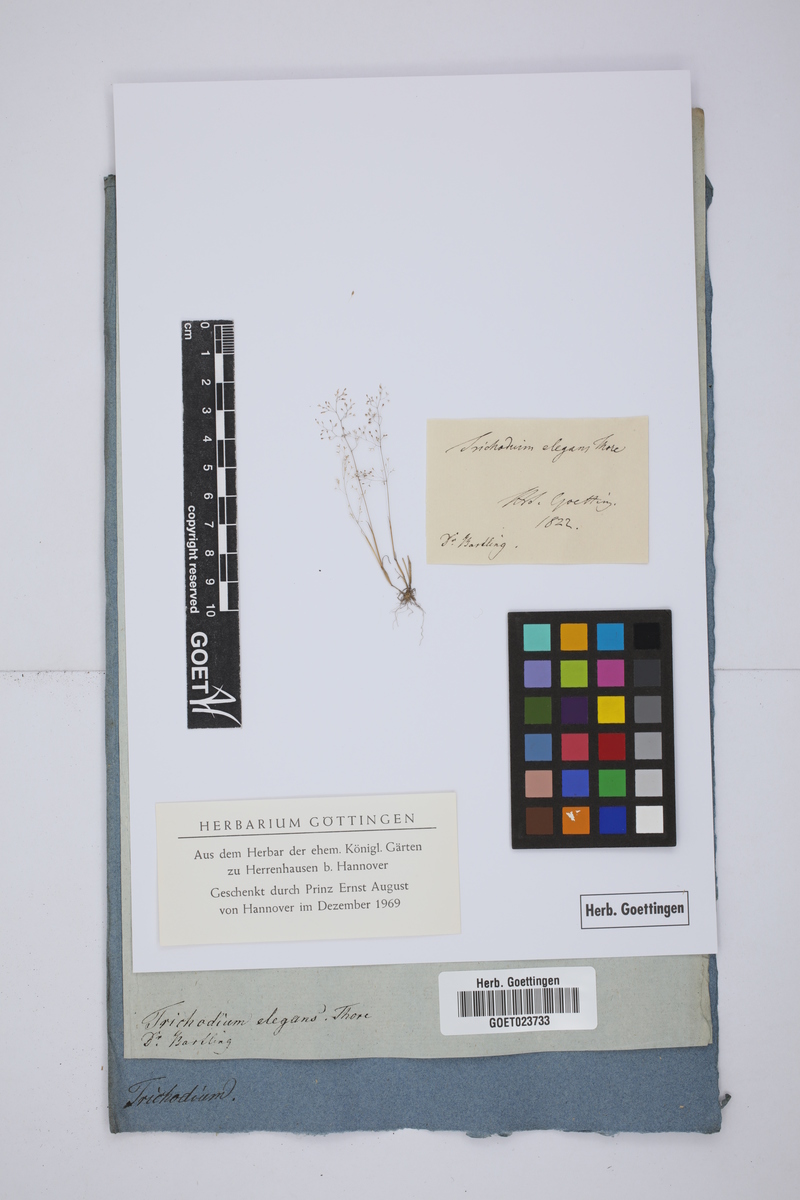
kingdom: Plantae
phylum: Tracheophyta
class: Liliopsida
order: Poales
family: Poaceae
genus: Agrostis
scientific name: Agrostis tenerrima
